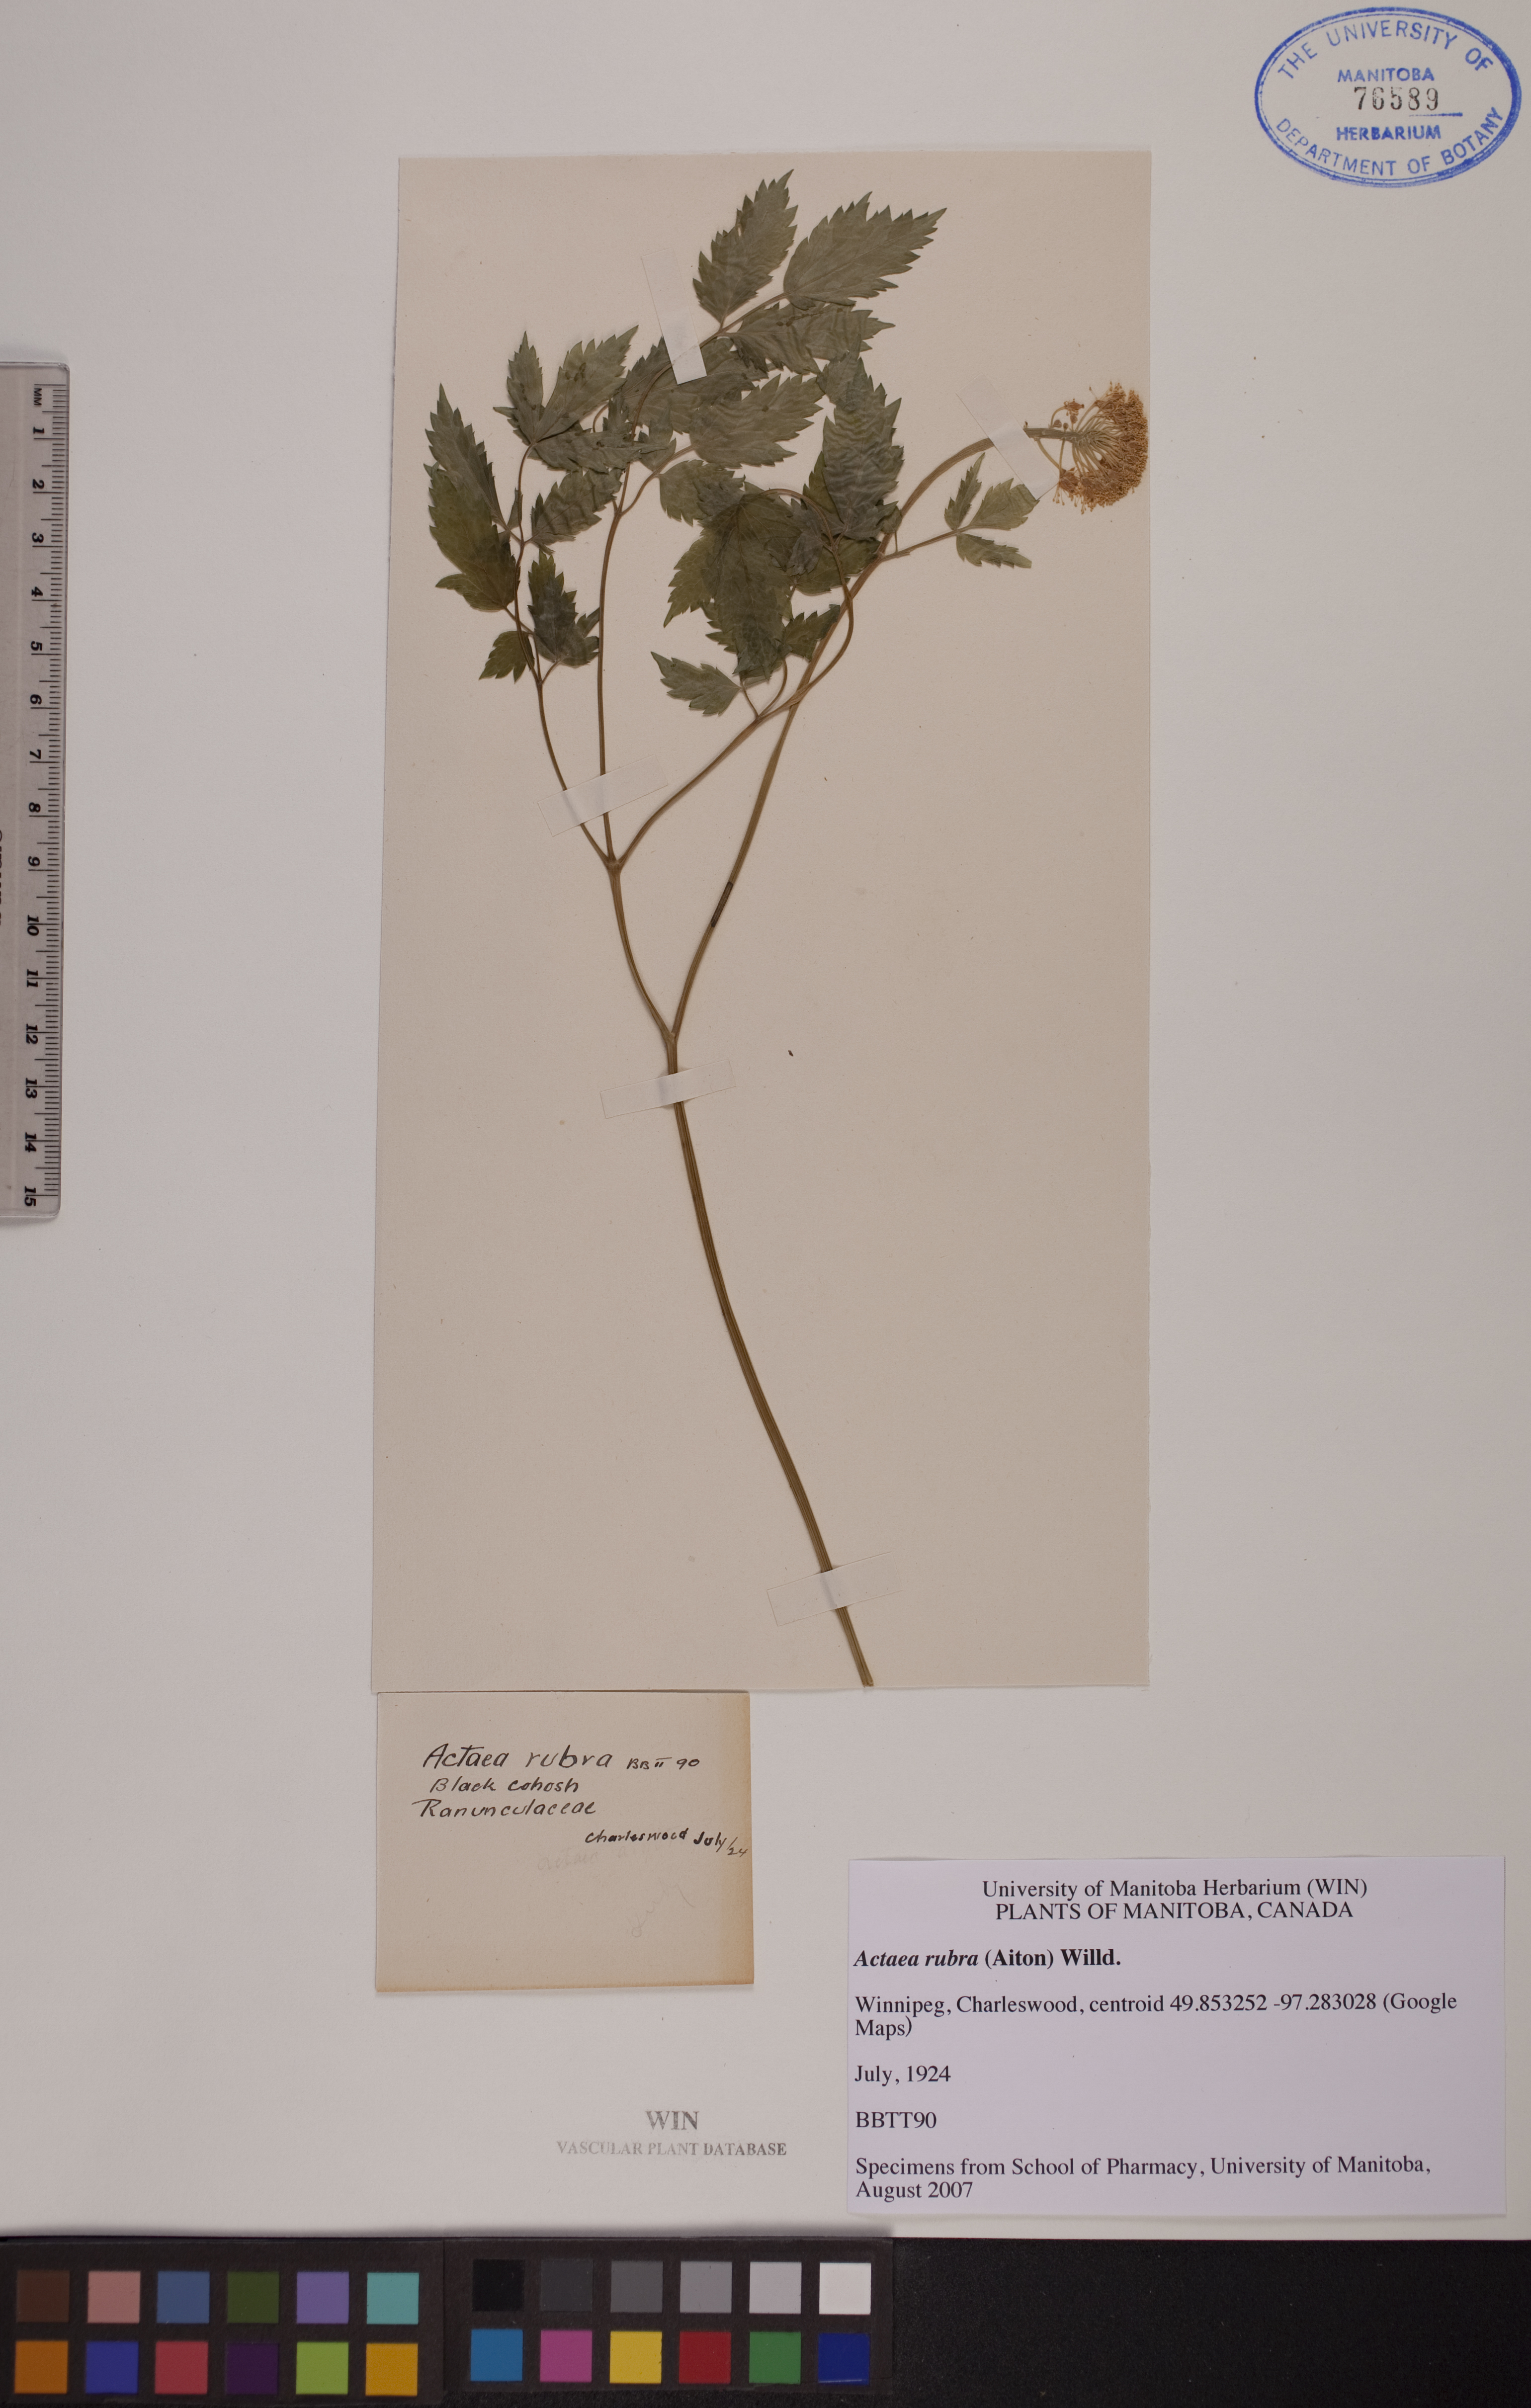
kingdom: Plantae
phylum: Tracheophyta
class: Magnoliopsida
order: Ranunculales
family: Ranunculaceae
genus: Actaea
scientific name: Actaea rubra
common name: Red baneberry
